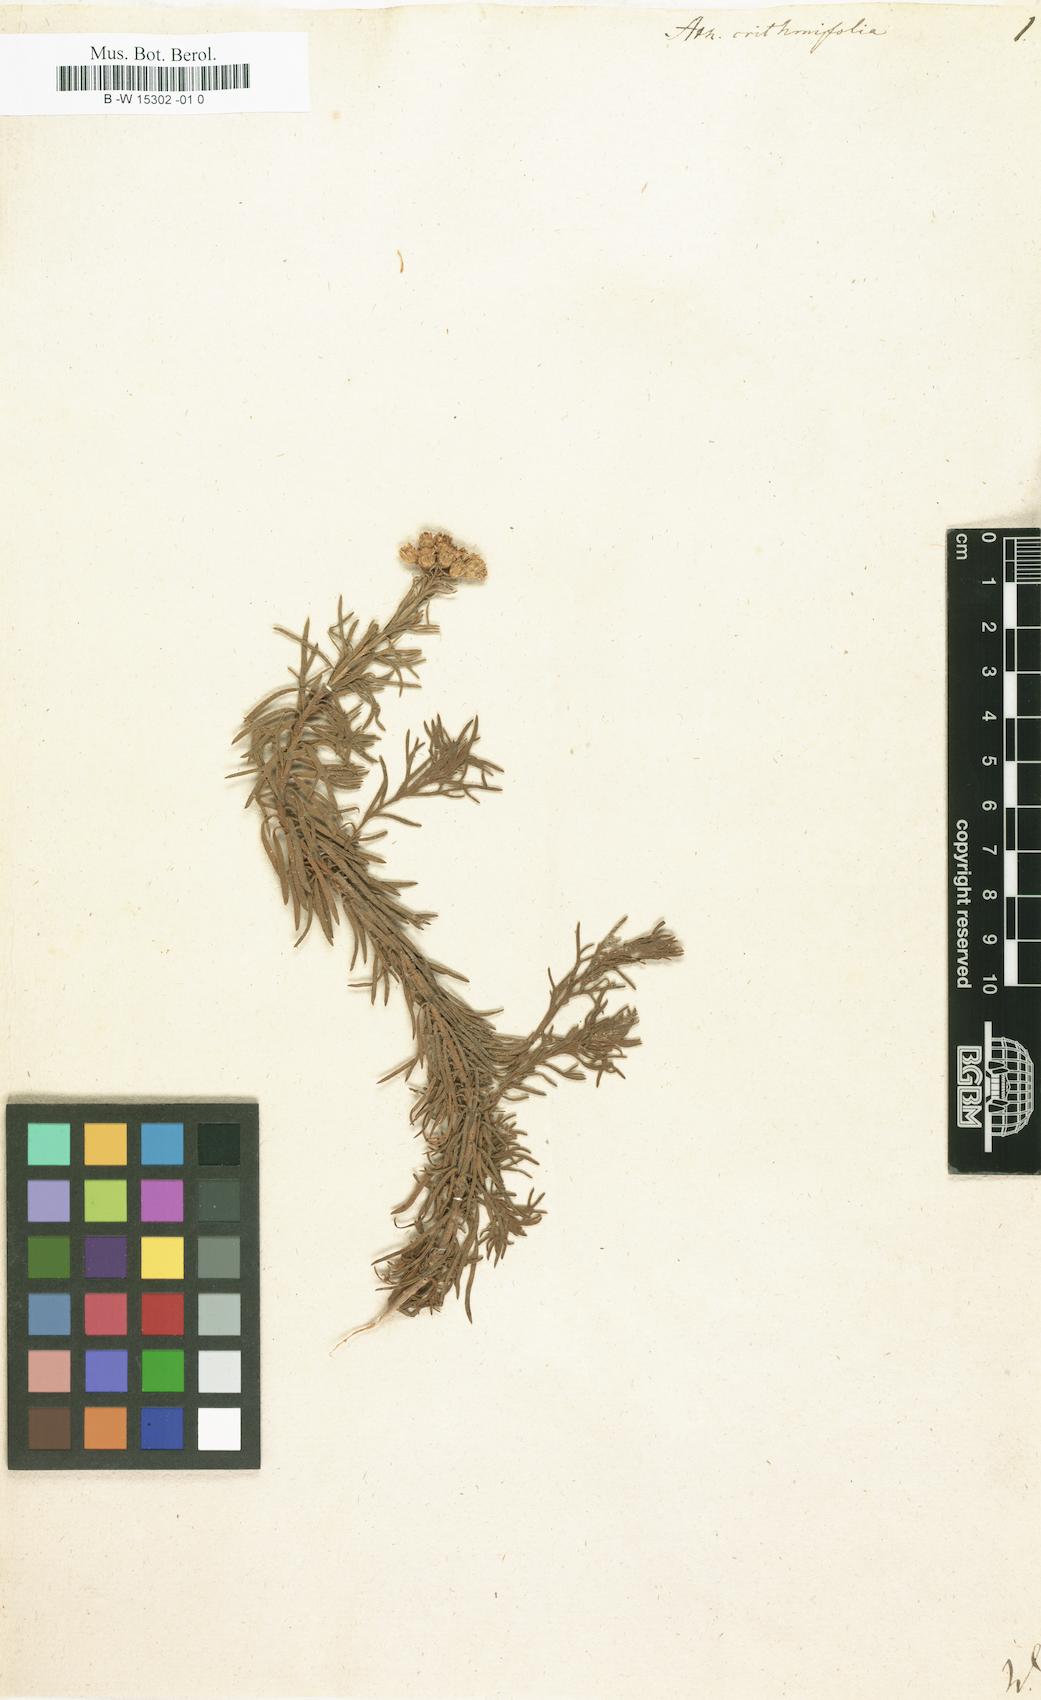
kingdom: Plantae
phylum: Tracheophyta
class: Magnoliopsida
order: Asterales
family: Asteraceae
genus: Athanasia
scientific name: Athanasia crithmifolia
